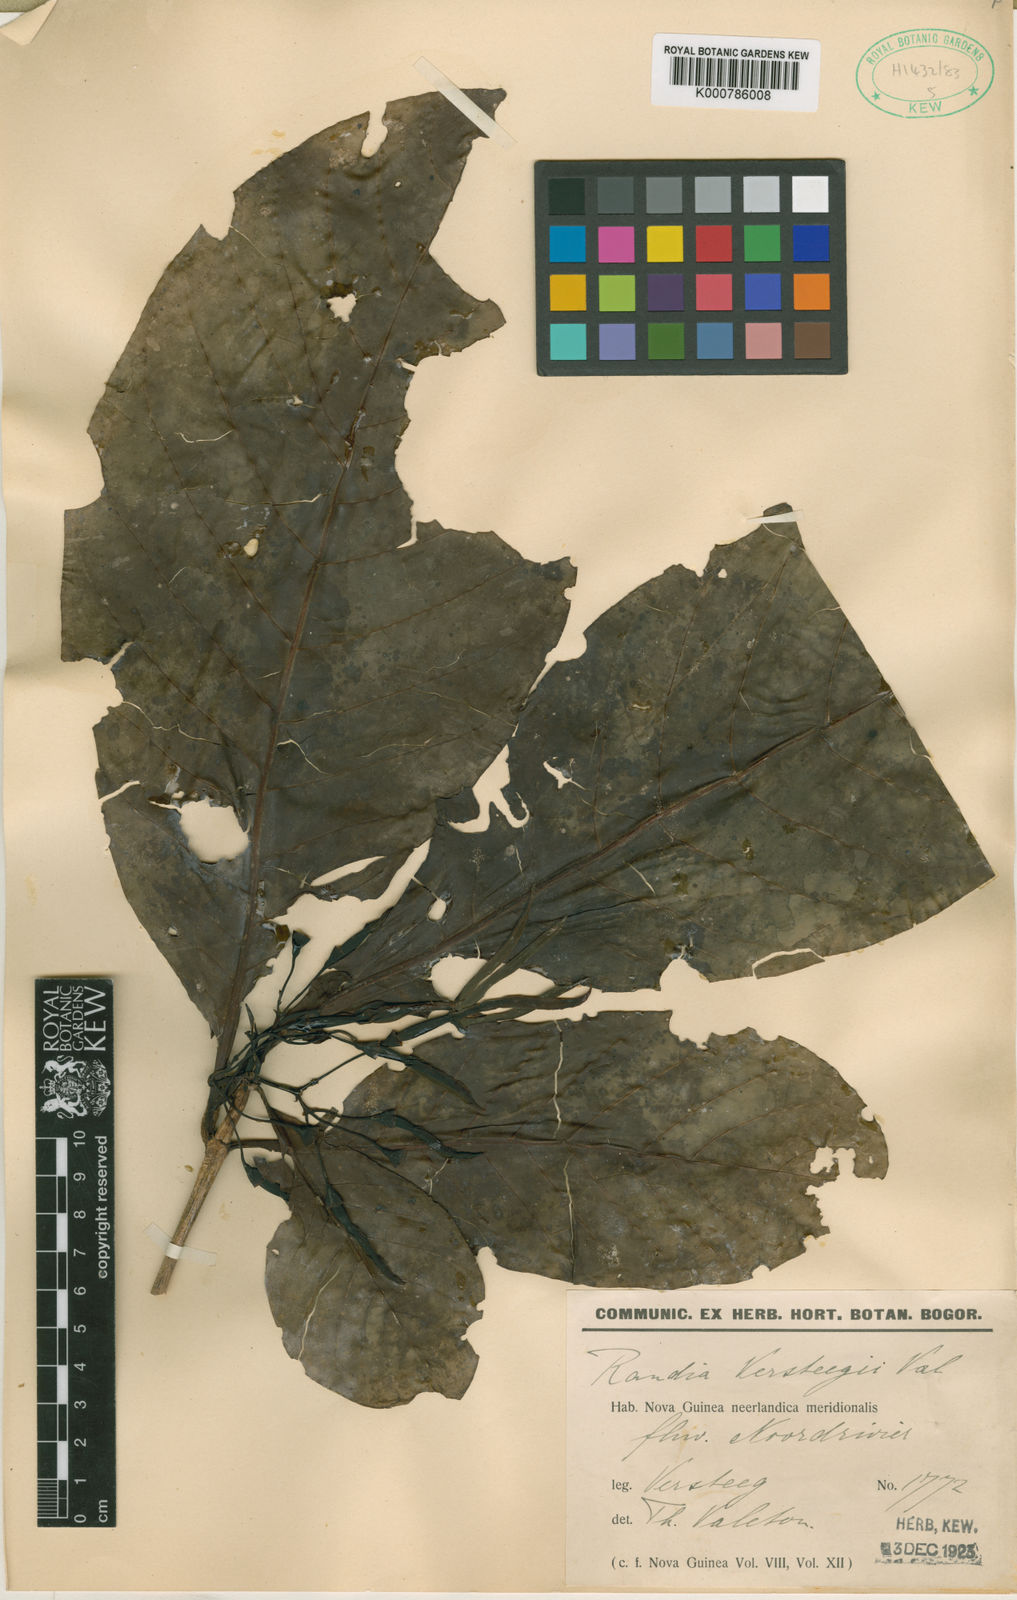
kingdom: Plantae
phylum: Tracheophyta
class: Magnoliopsida
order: Gentianales
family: Rubiaceae
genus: Atractocarpus
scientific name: Atractocarpus versteegii
